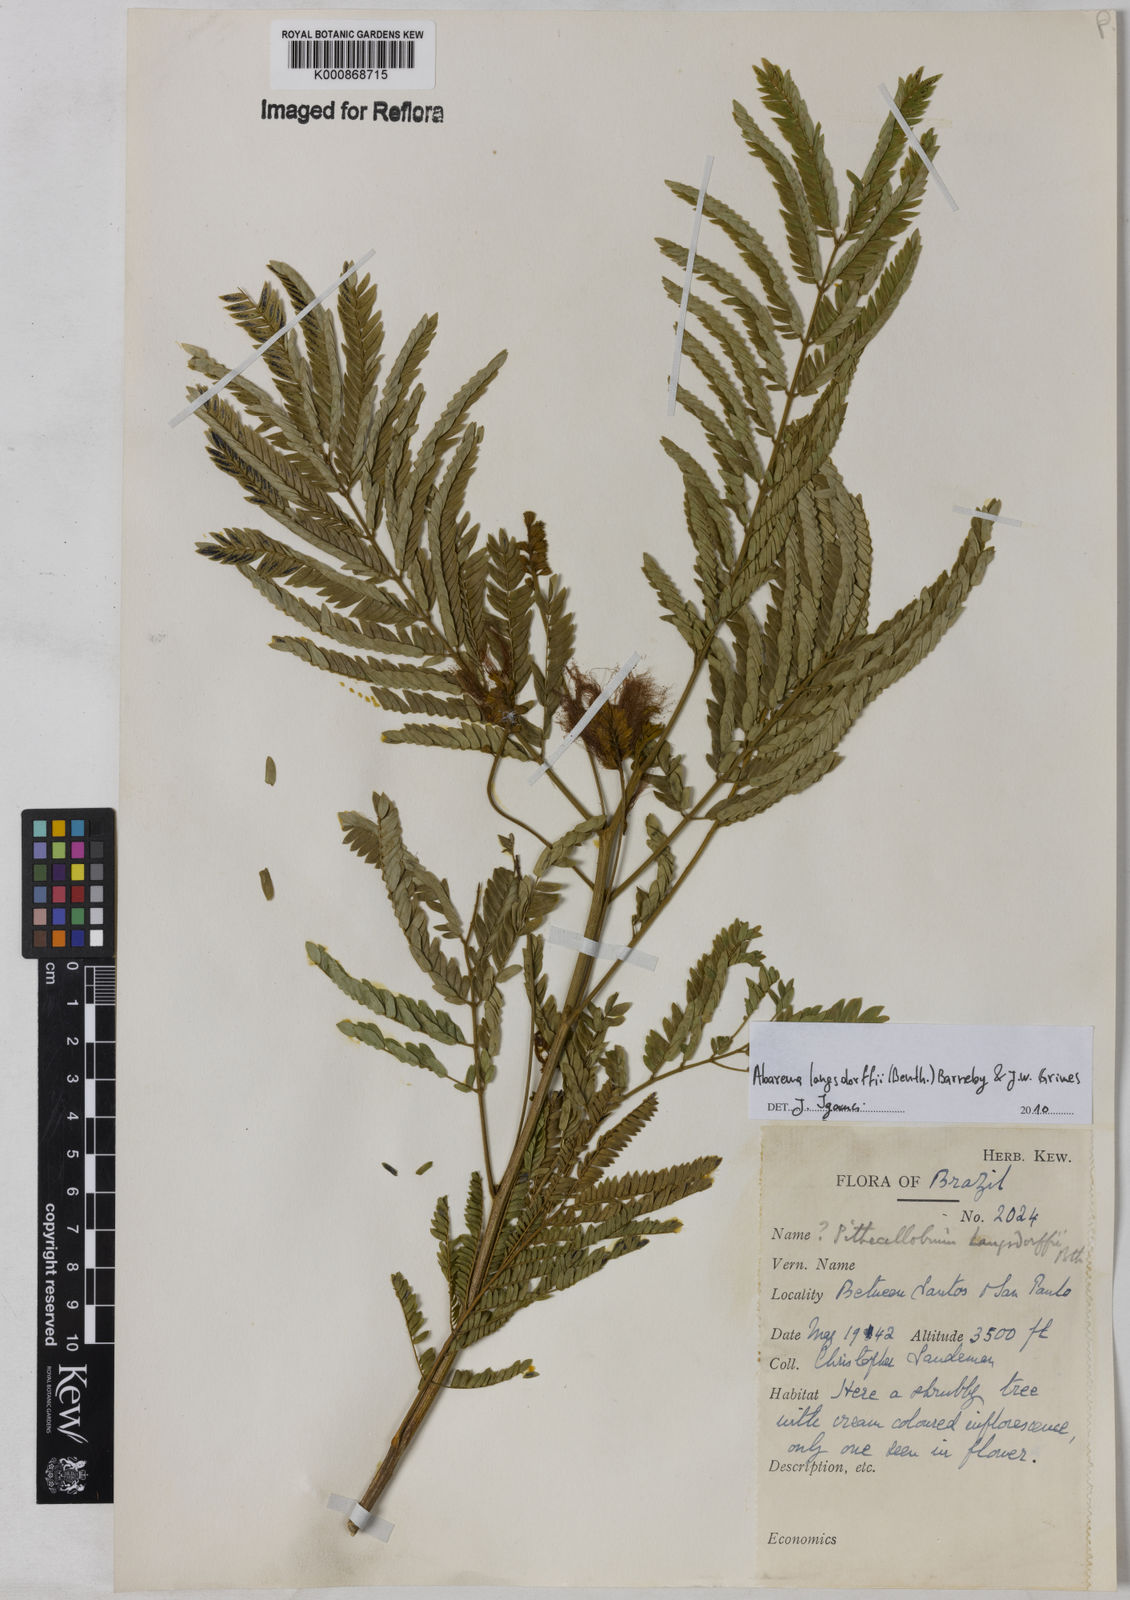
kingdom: Plantae
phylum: Tracheophyta
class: Magnoliopsida
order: Fabales
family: Fabaceae
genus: Jupunba
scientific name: Jupunba langsdorffii
